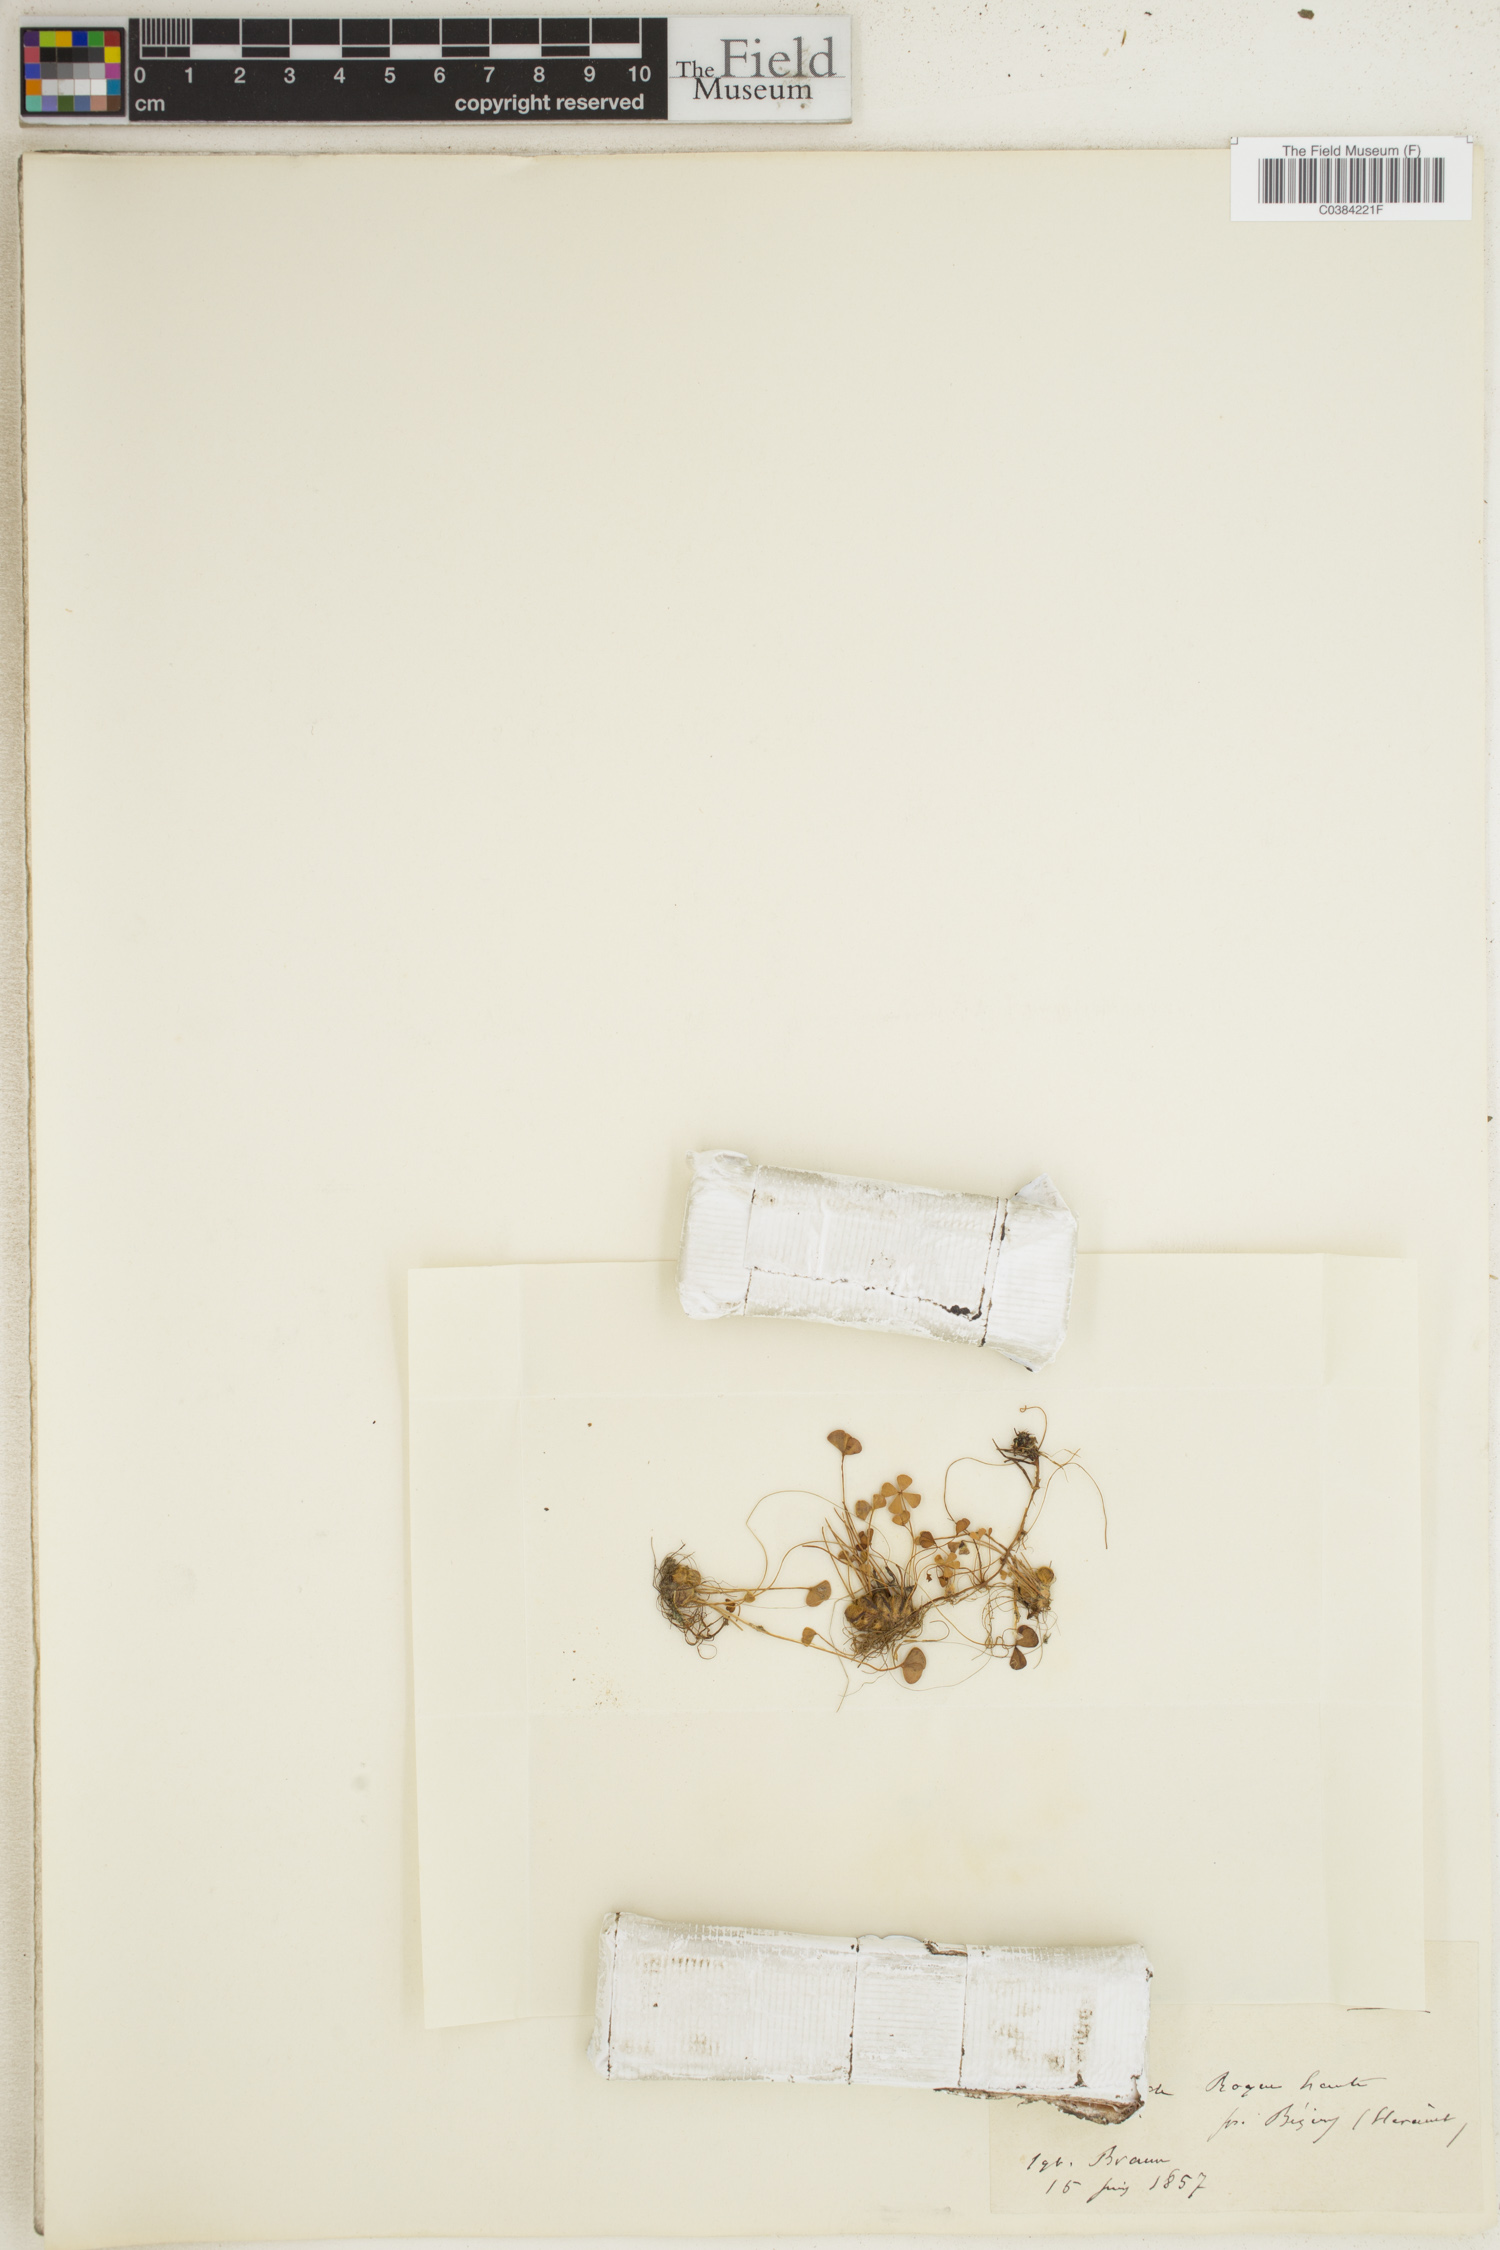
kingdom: Plantae
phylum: Tracheophyta
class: Polypodiopsida
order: Salviniales
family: Marsileaceae
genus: Marsilea
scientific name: Marsilea
